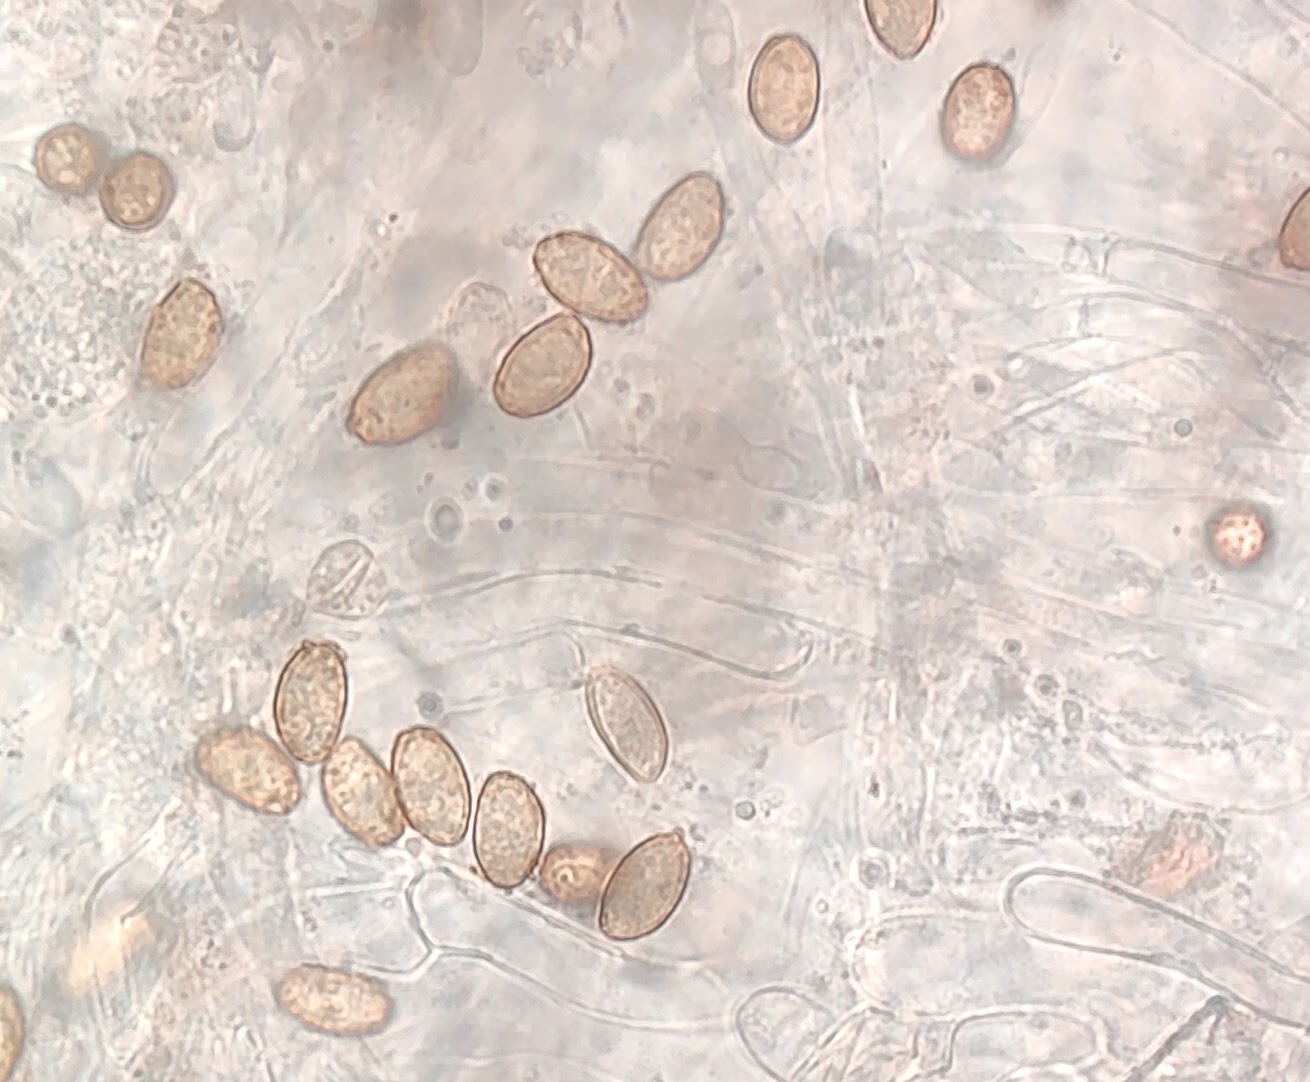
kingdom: Fungi
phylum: Basidiomycota
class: Agaricomycetes
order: Agaricales
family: Cortinariaceae
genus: Cortinarius
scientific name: Cortinarius
